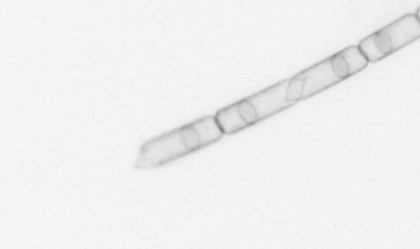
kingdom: Chromista
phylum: Ochrophyta
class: Bacillariophyceae
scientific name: Bacillariophyceae
